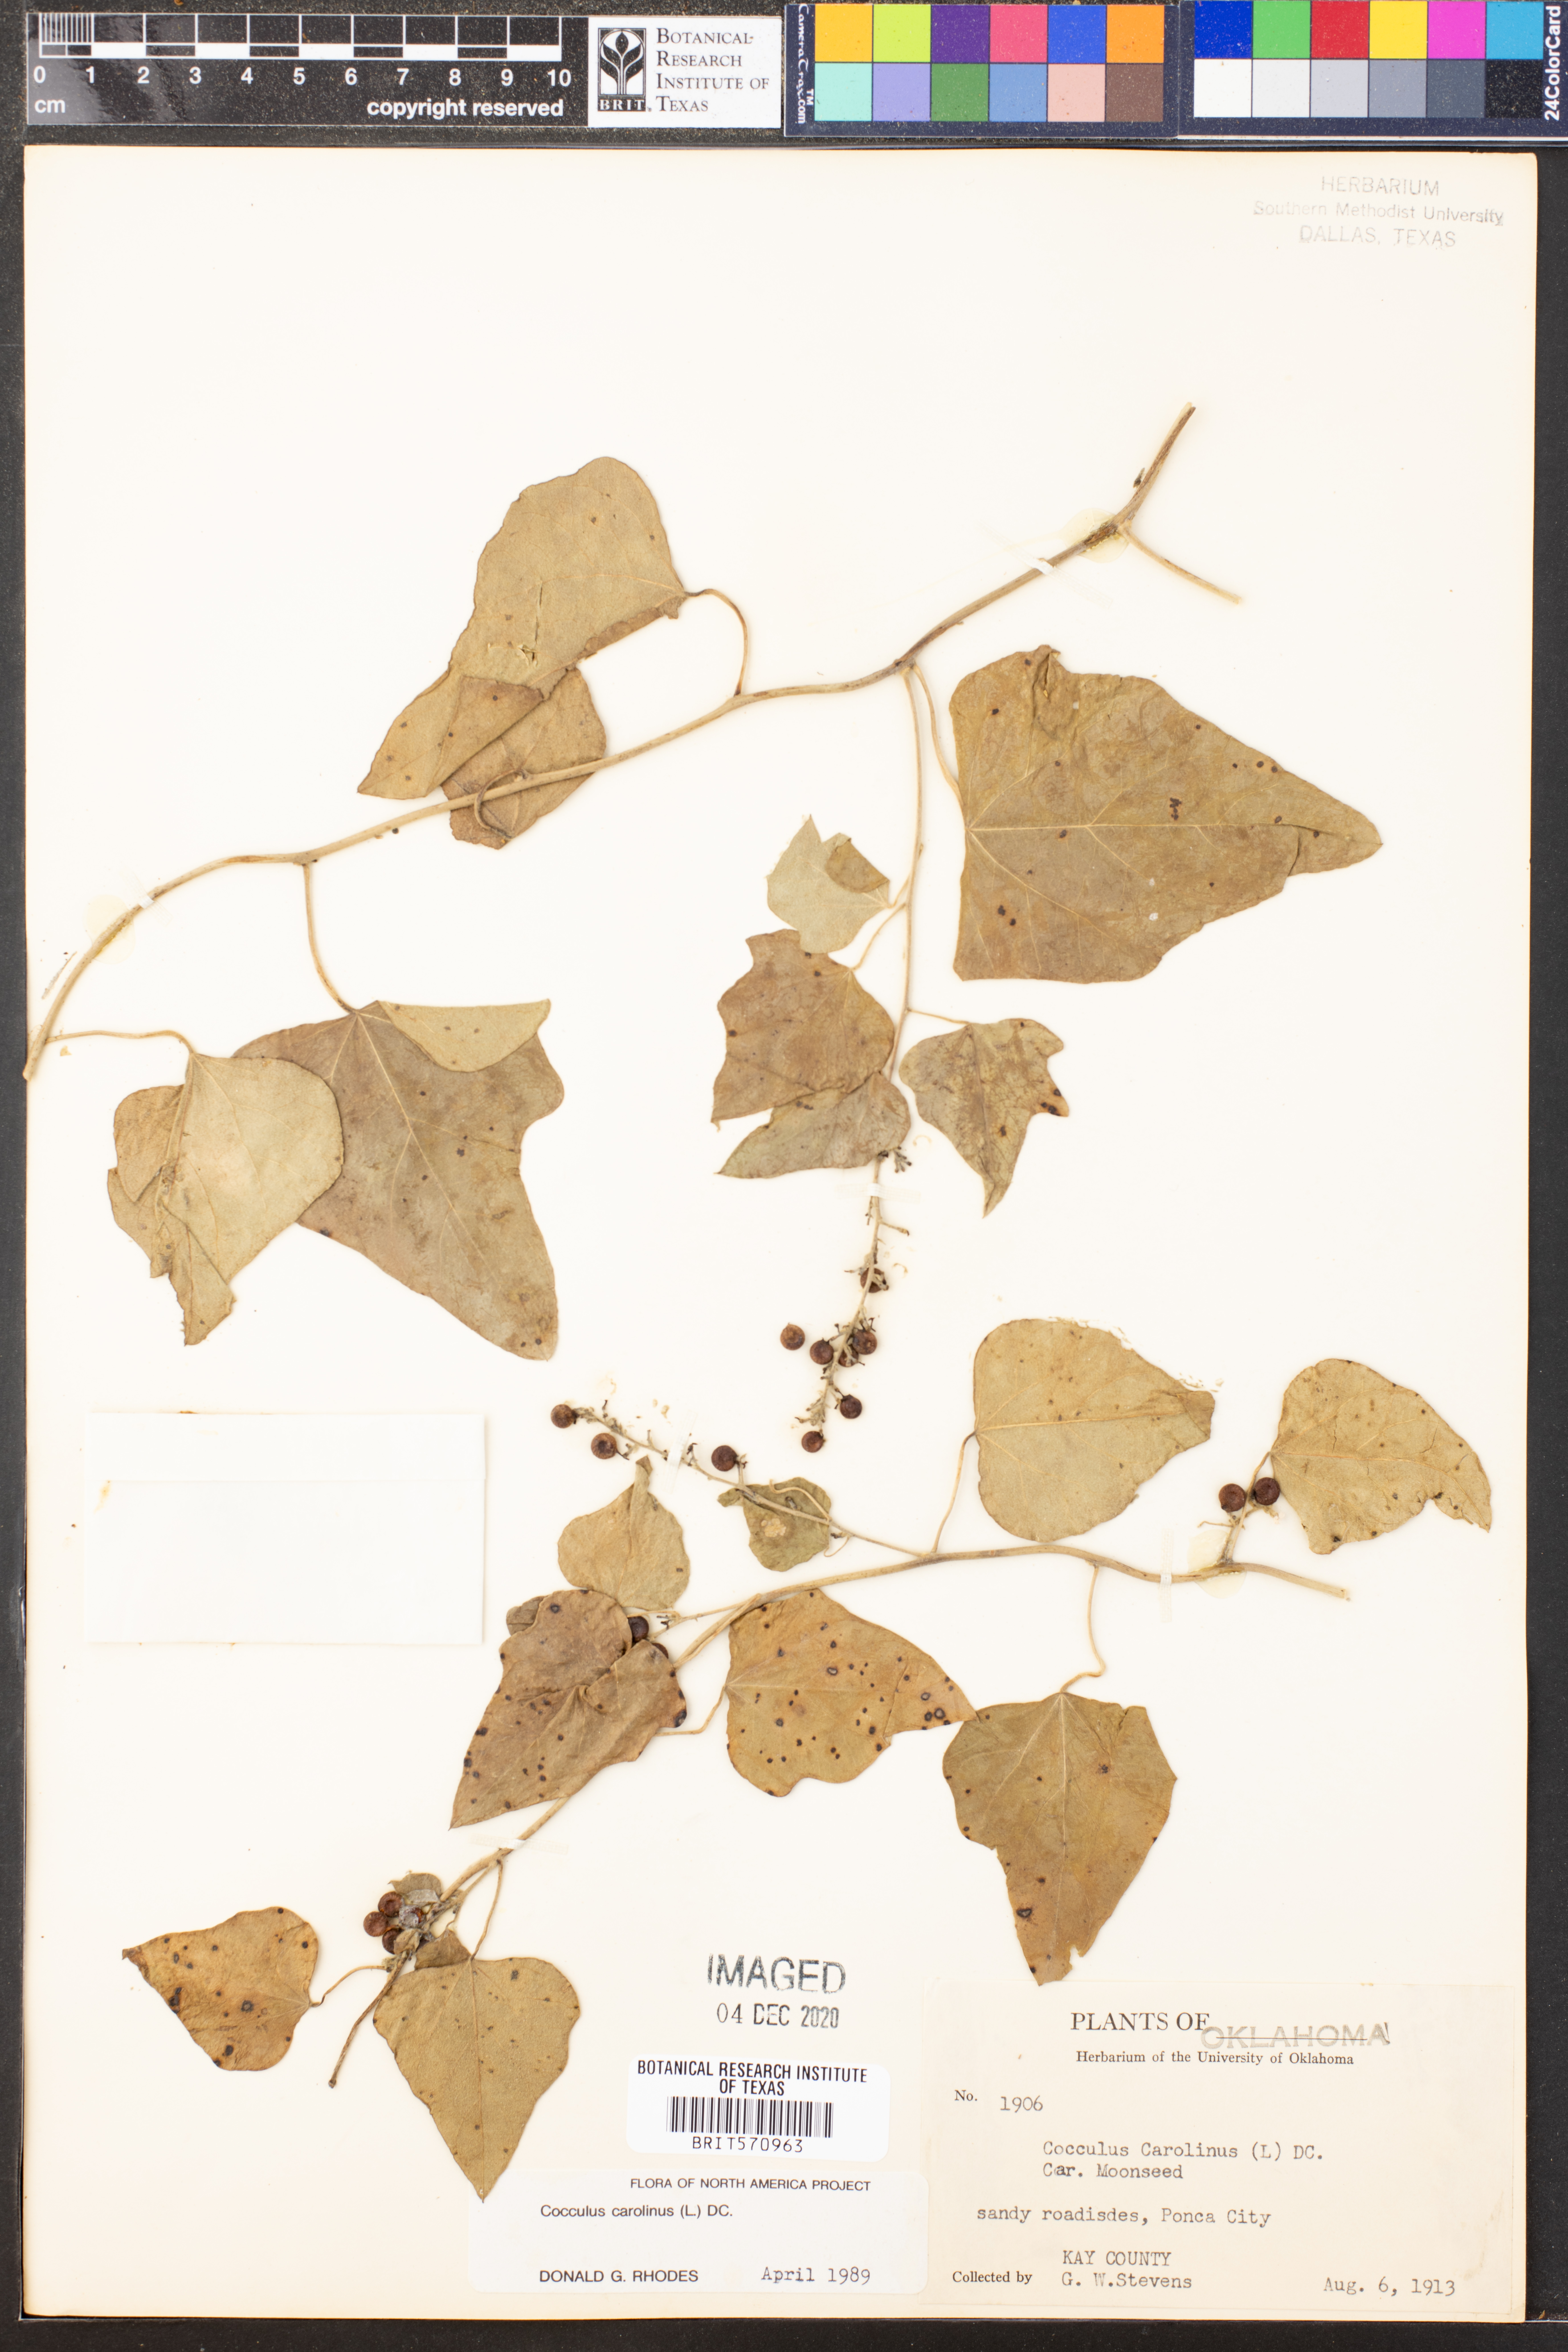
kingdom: Plantae
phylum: Tracheophyta
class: Magnoliopsida
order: Ranunculales
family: Menispermaceae
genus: Cocculus
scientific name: Cocculus carolinus
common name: Carolina moonseed
